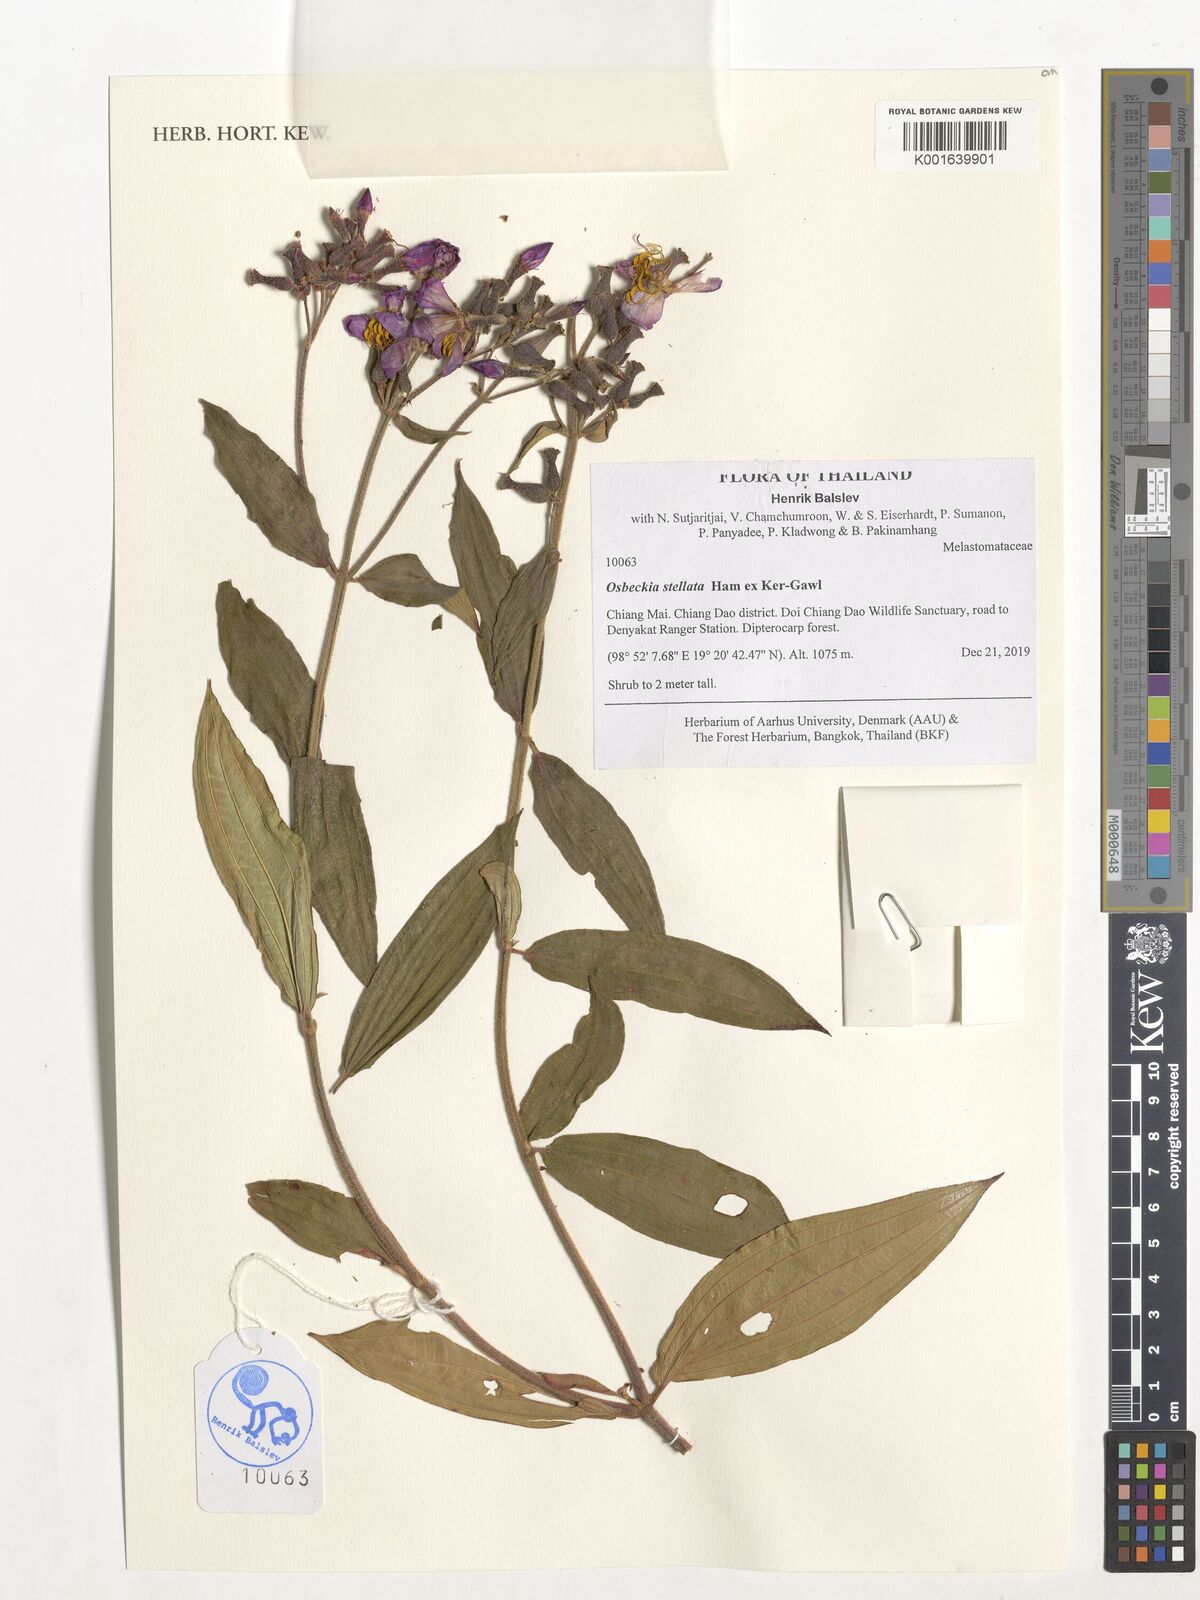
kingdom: Plantae
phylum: Tracheophyta
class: Magnoliopsida
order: Myrtales
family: Melastomataceae
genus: Osbeckia
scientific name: Osbeckia stellata
